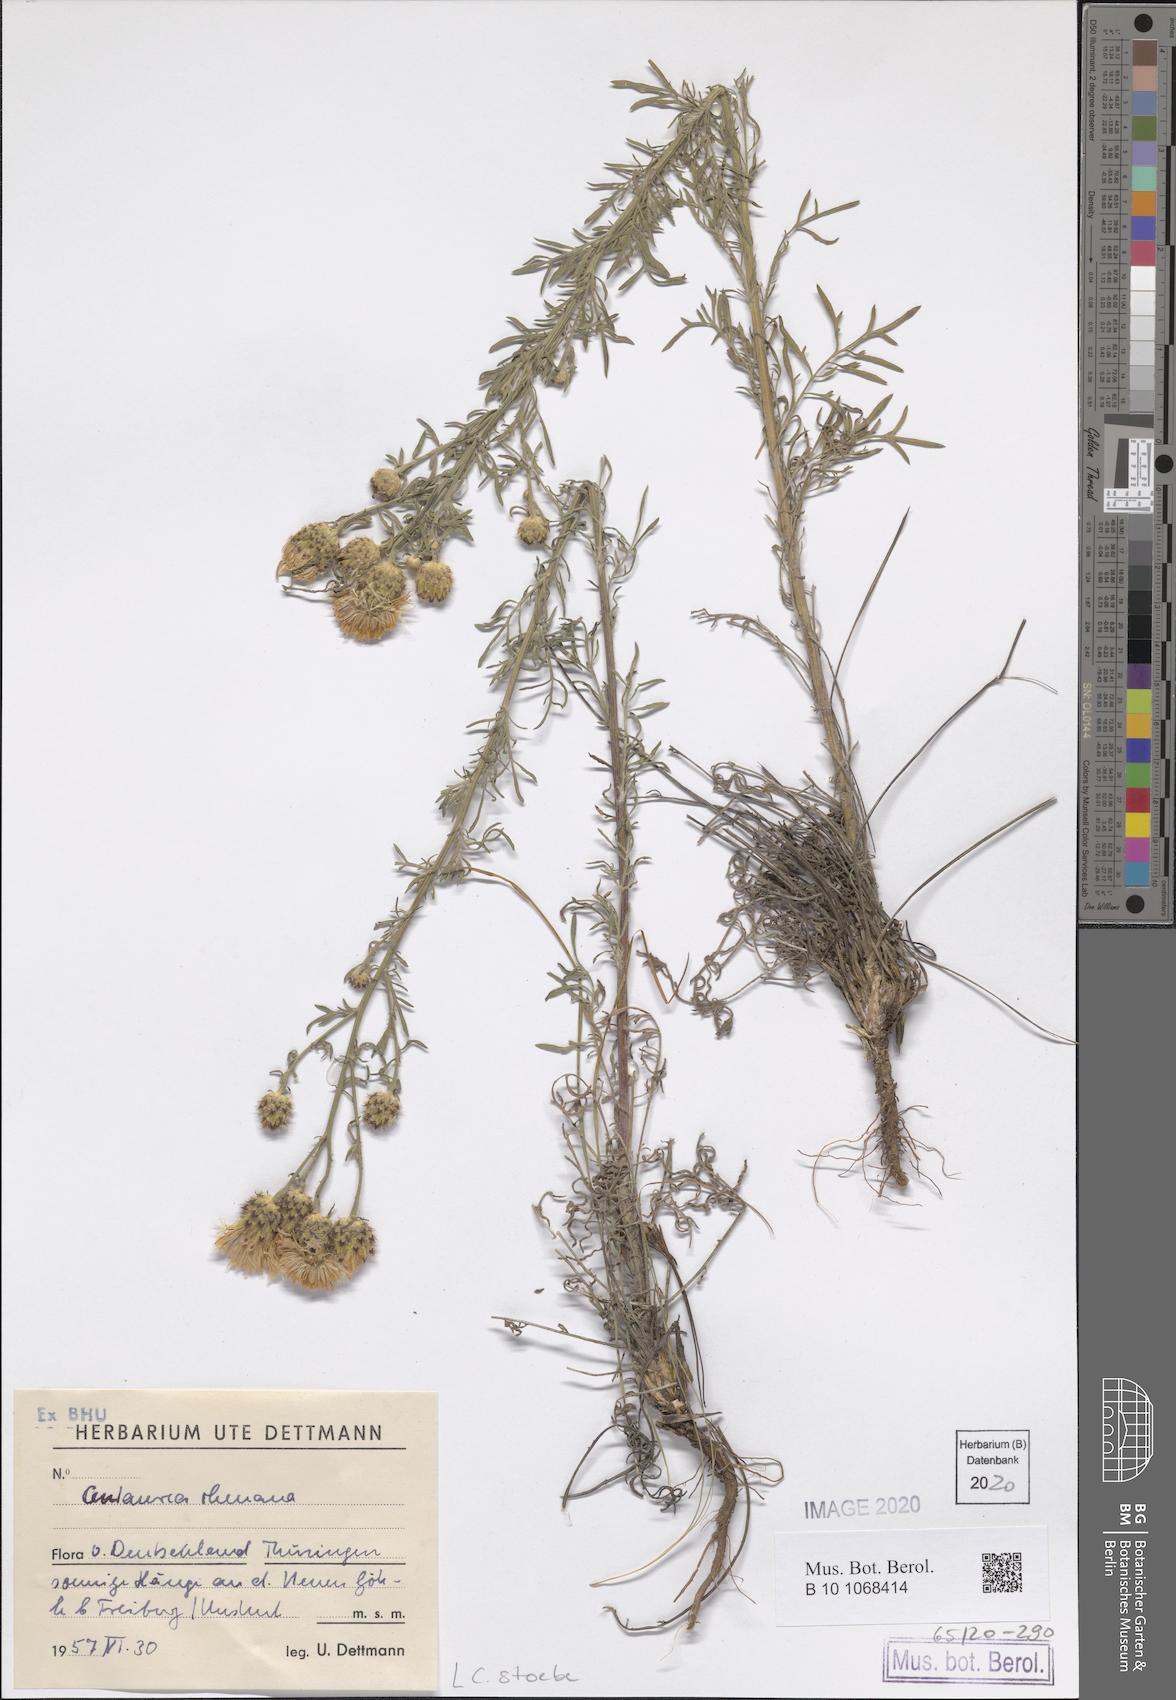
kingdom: Plantae
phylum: Tracheophyta
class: Magnoliopsida
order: Asterales
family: Asteraceae
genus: Centaurea
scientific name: Centaurea stoebe
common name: Spotted knapweed
